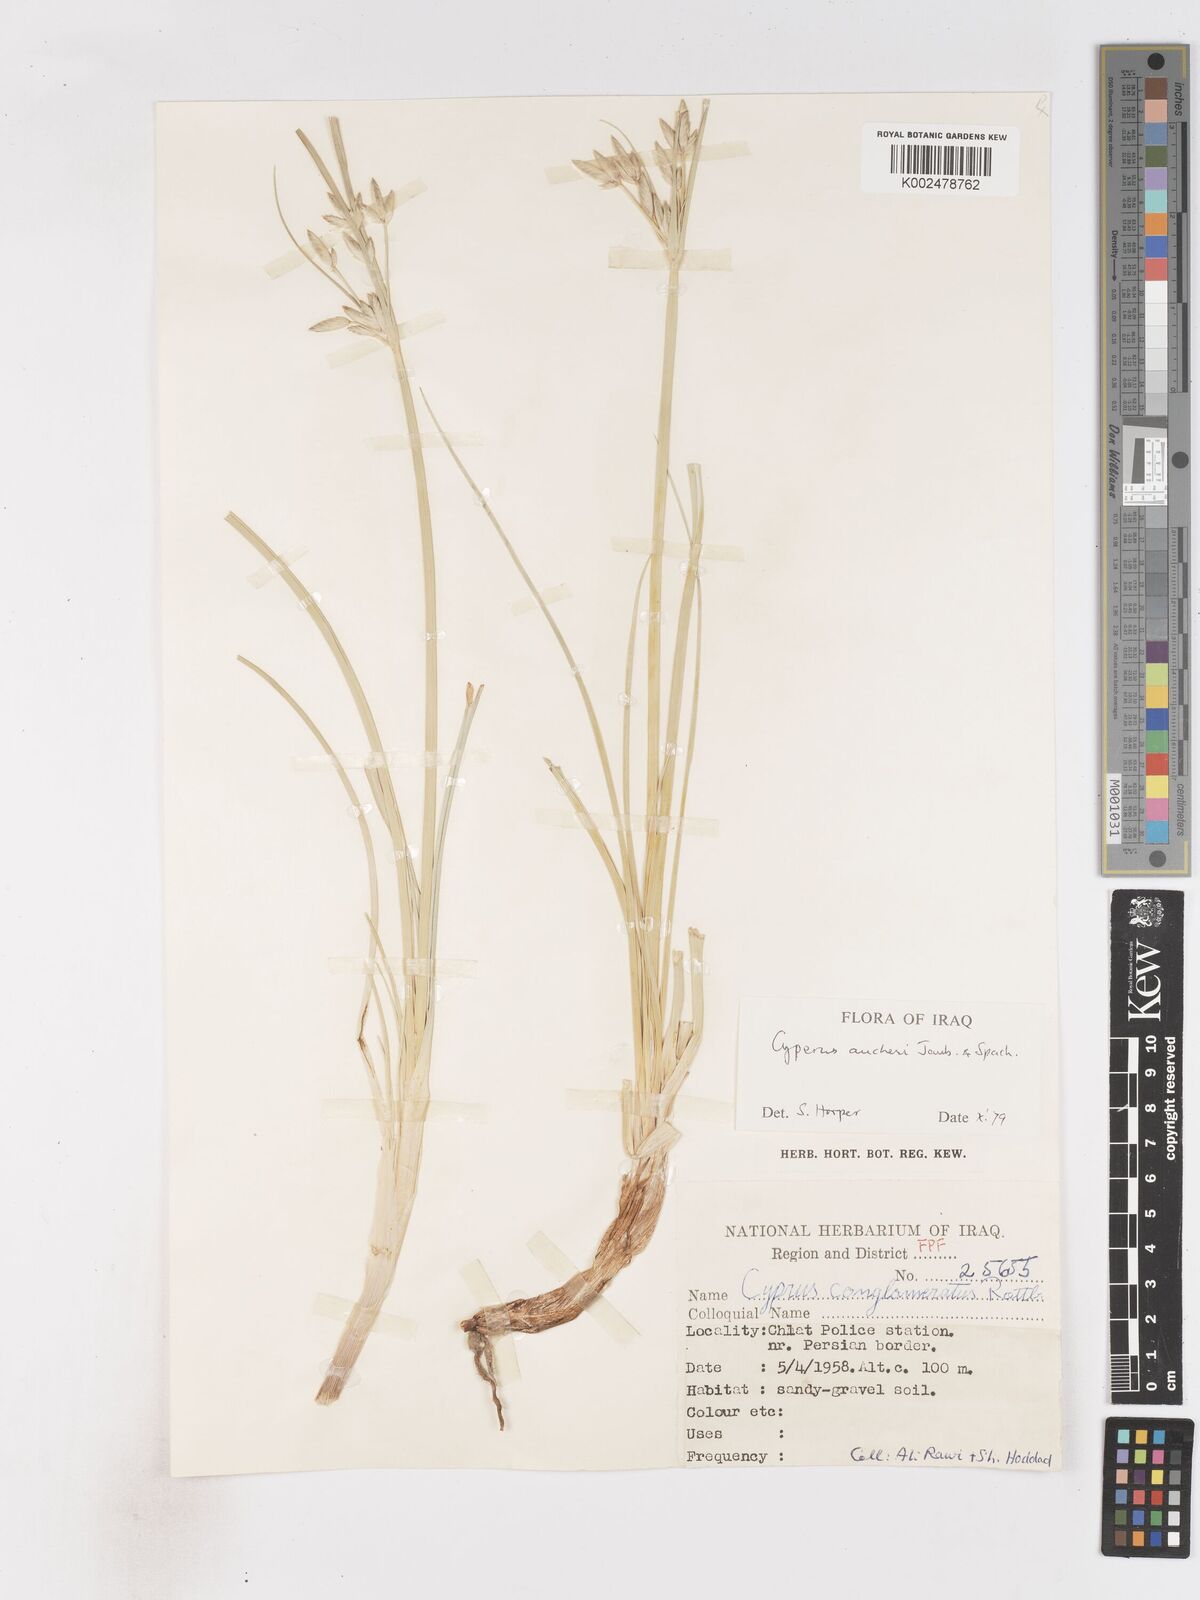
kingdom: Plantae
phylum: Tracheophyta
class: Liliopsida
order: Poales
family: Cyperaceae
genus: Cyperus
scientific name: Cyperus aucheri
